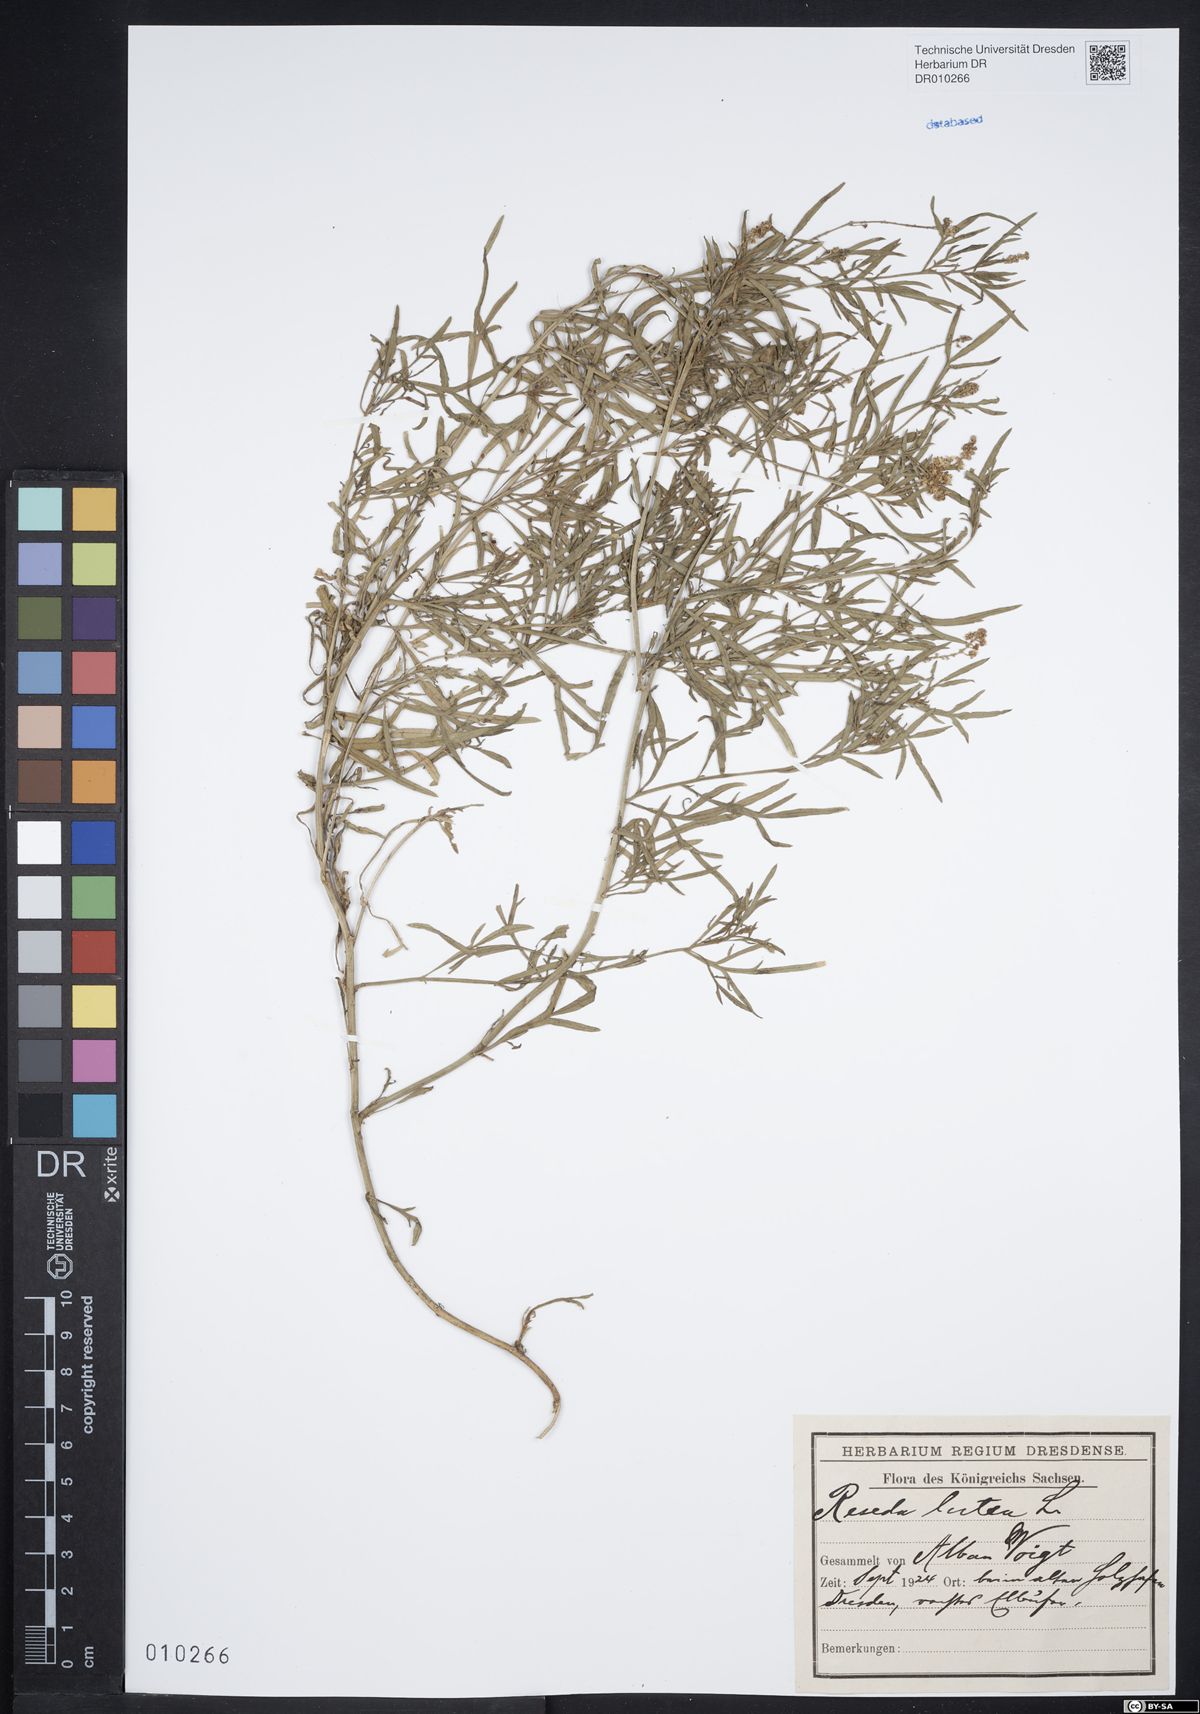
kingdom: Plantae
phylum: Tracheophyta
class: Magnoliopsida
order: Brassicales
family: Resedaceae
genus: Reseda
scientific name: Reseda lutea
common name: Wild mignonette
